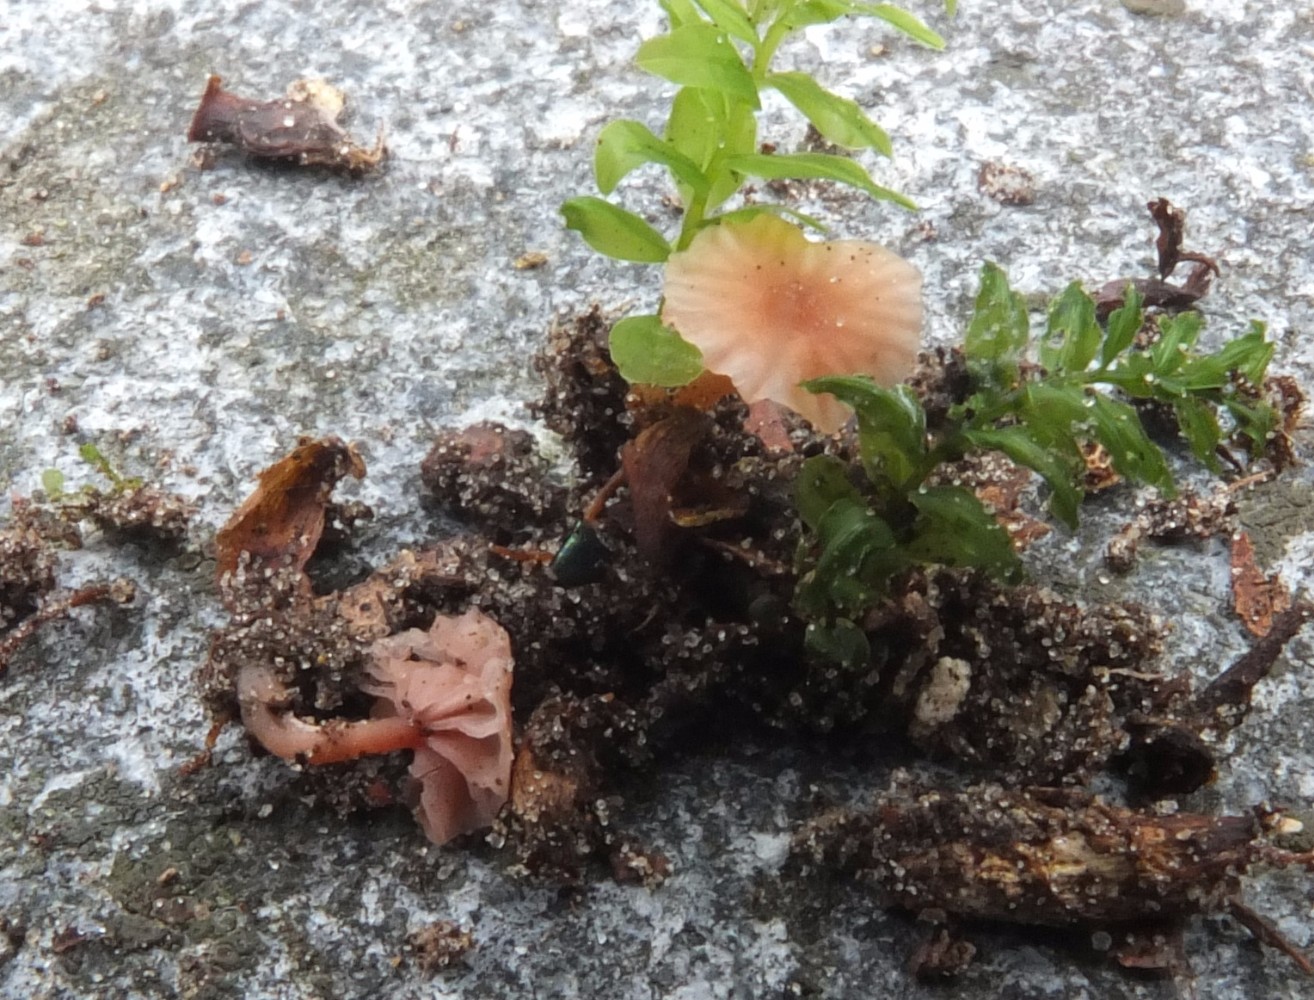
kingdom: Fungi
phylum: Basidiomycota
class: Agaricomycetes
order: Agaricales
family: Hydnangiaceae
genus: Laccaria
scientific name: Laccaria tortilis
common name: krybende ametysthat
